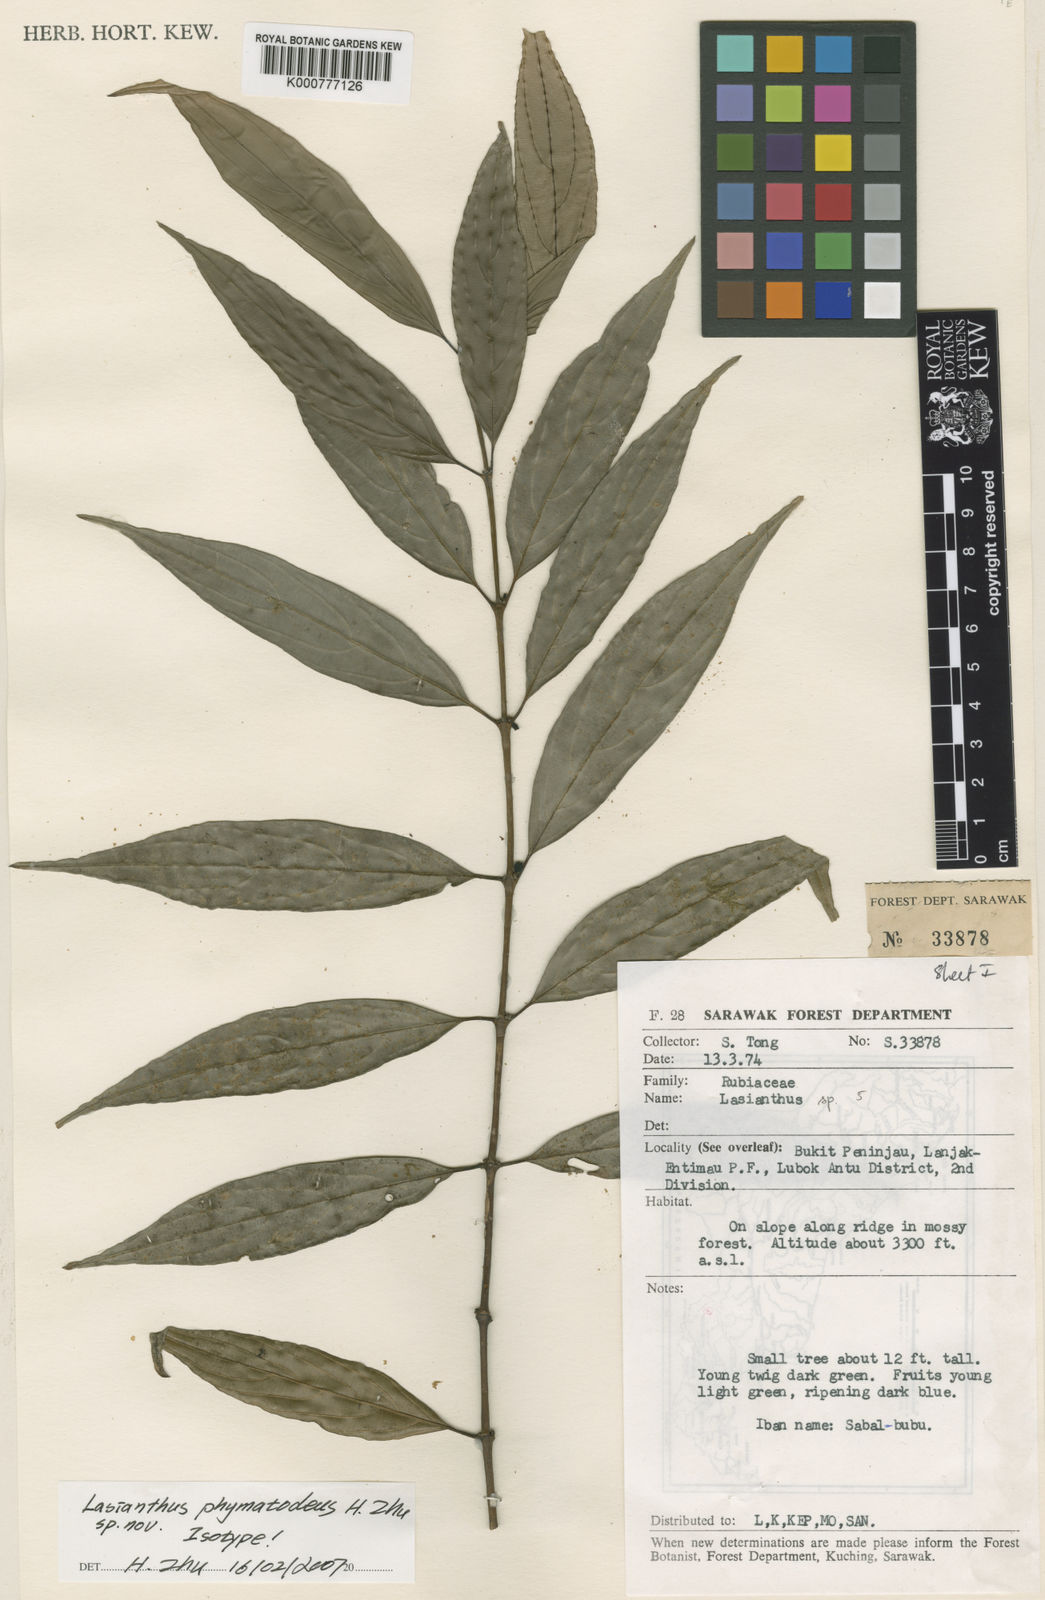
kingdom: Plantae
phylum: Tracheophyta
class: Magnoliopsida
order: Gentianales
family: Rubiaceae
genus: Lasianthus
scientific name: Lasianthus phymatodeus
